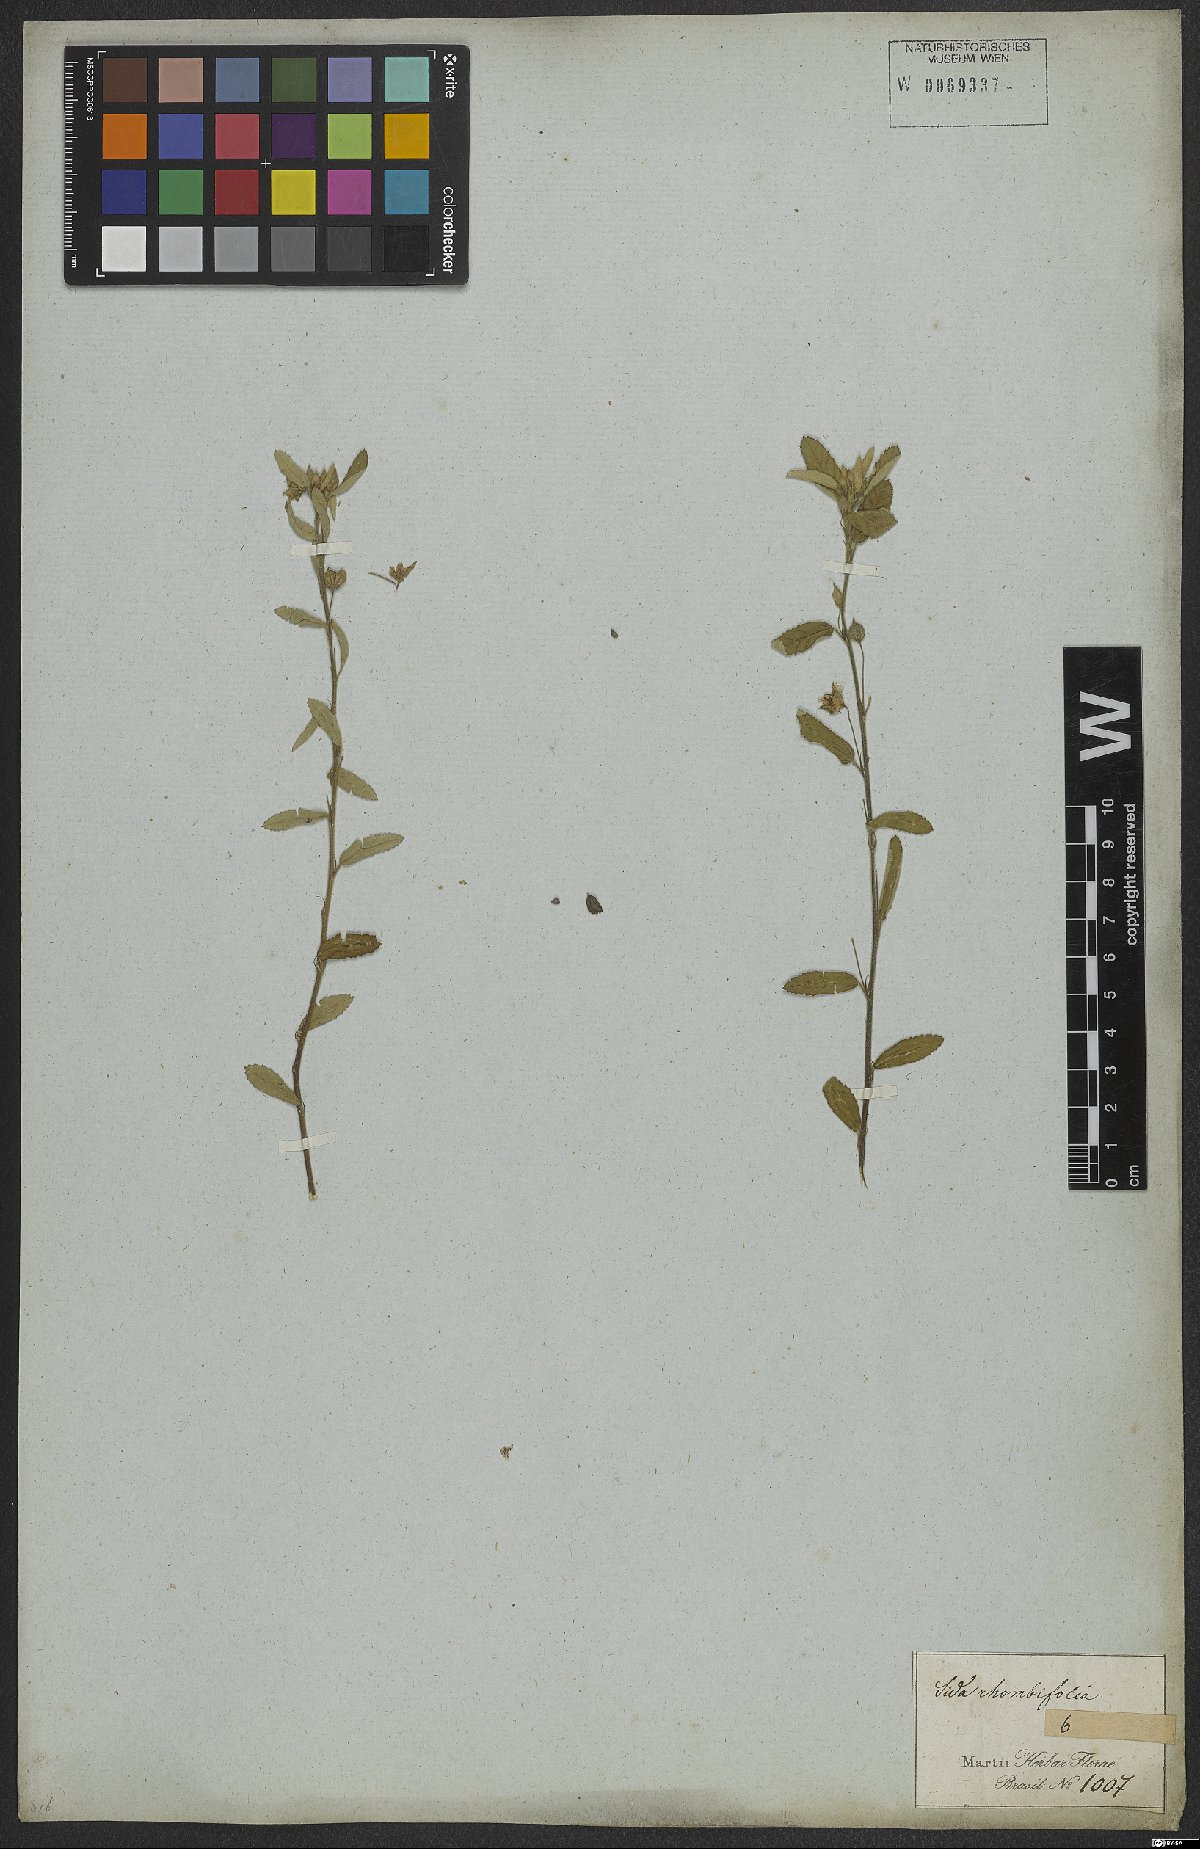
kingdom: Plantae
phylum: Tracheophyta
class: Magnoliopsida
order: Malvales
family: Malvaceae
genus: Sida
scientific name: Sida rhombifolia
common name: Queensland-hemp
